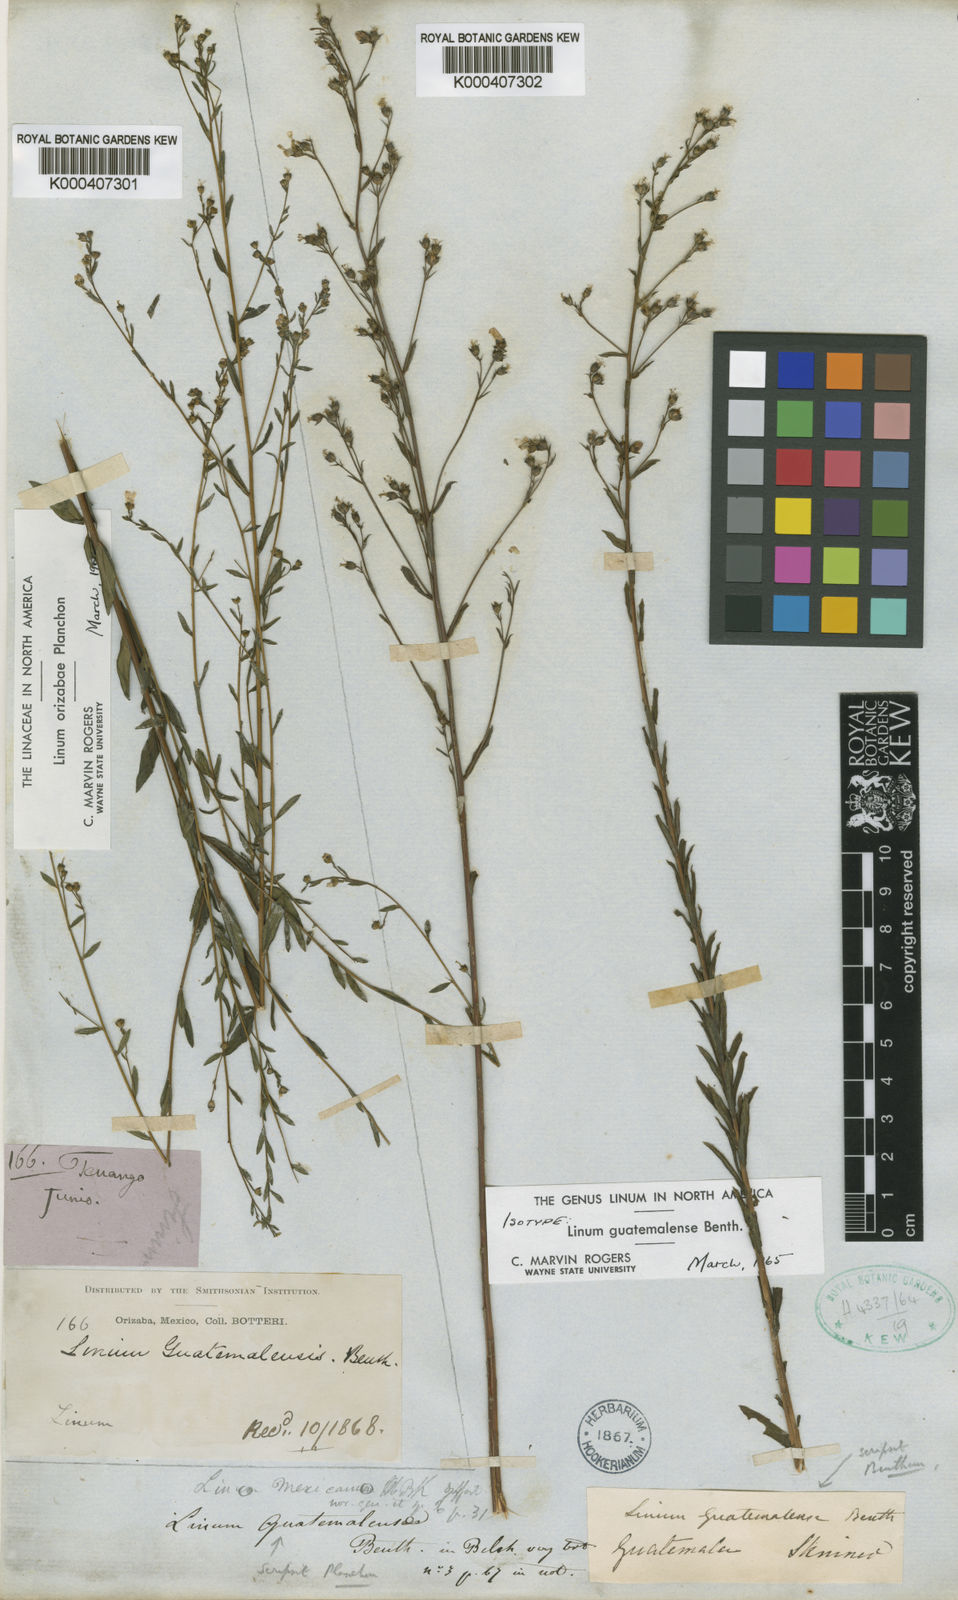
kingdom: Plantae
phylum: Tracheophyta
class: Magnoliopsida
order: Malpighiales
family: Linaceae
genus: Linum
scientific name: Linum guatemalense
